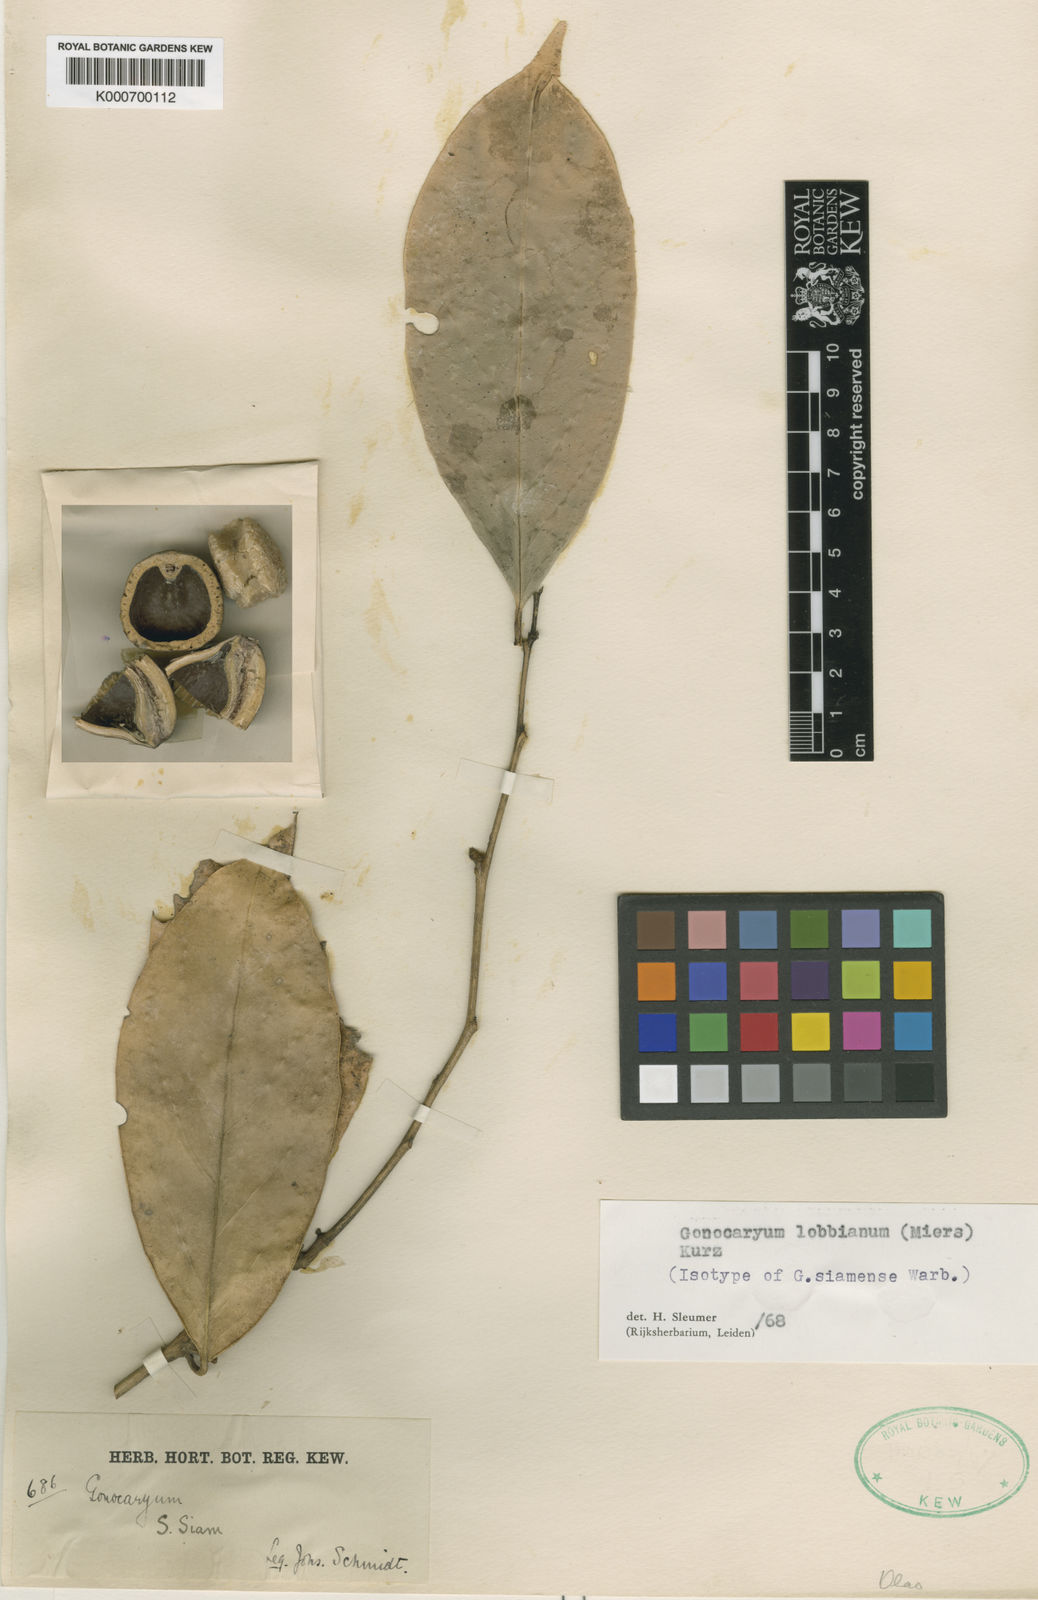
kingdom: Plantae
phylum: Tracheophyta
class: Magnoliopsida
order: Cardiopteridales
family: Cardiopteridaceae
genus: Gonocaryum
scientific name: Gonocaryum lobbianum
